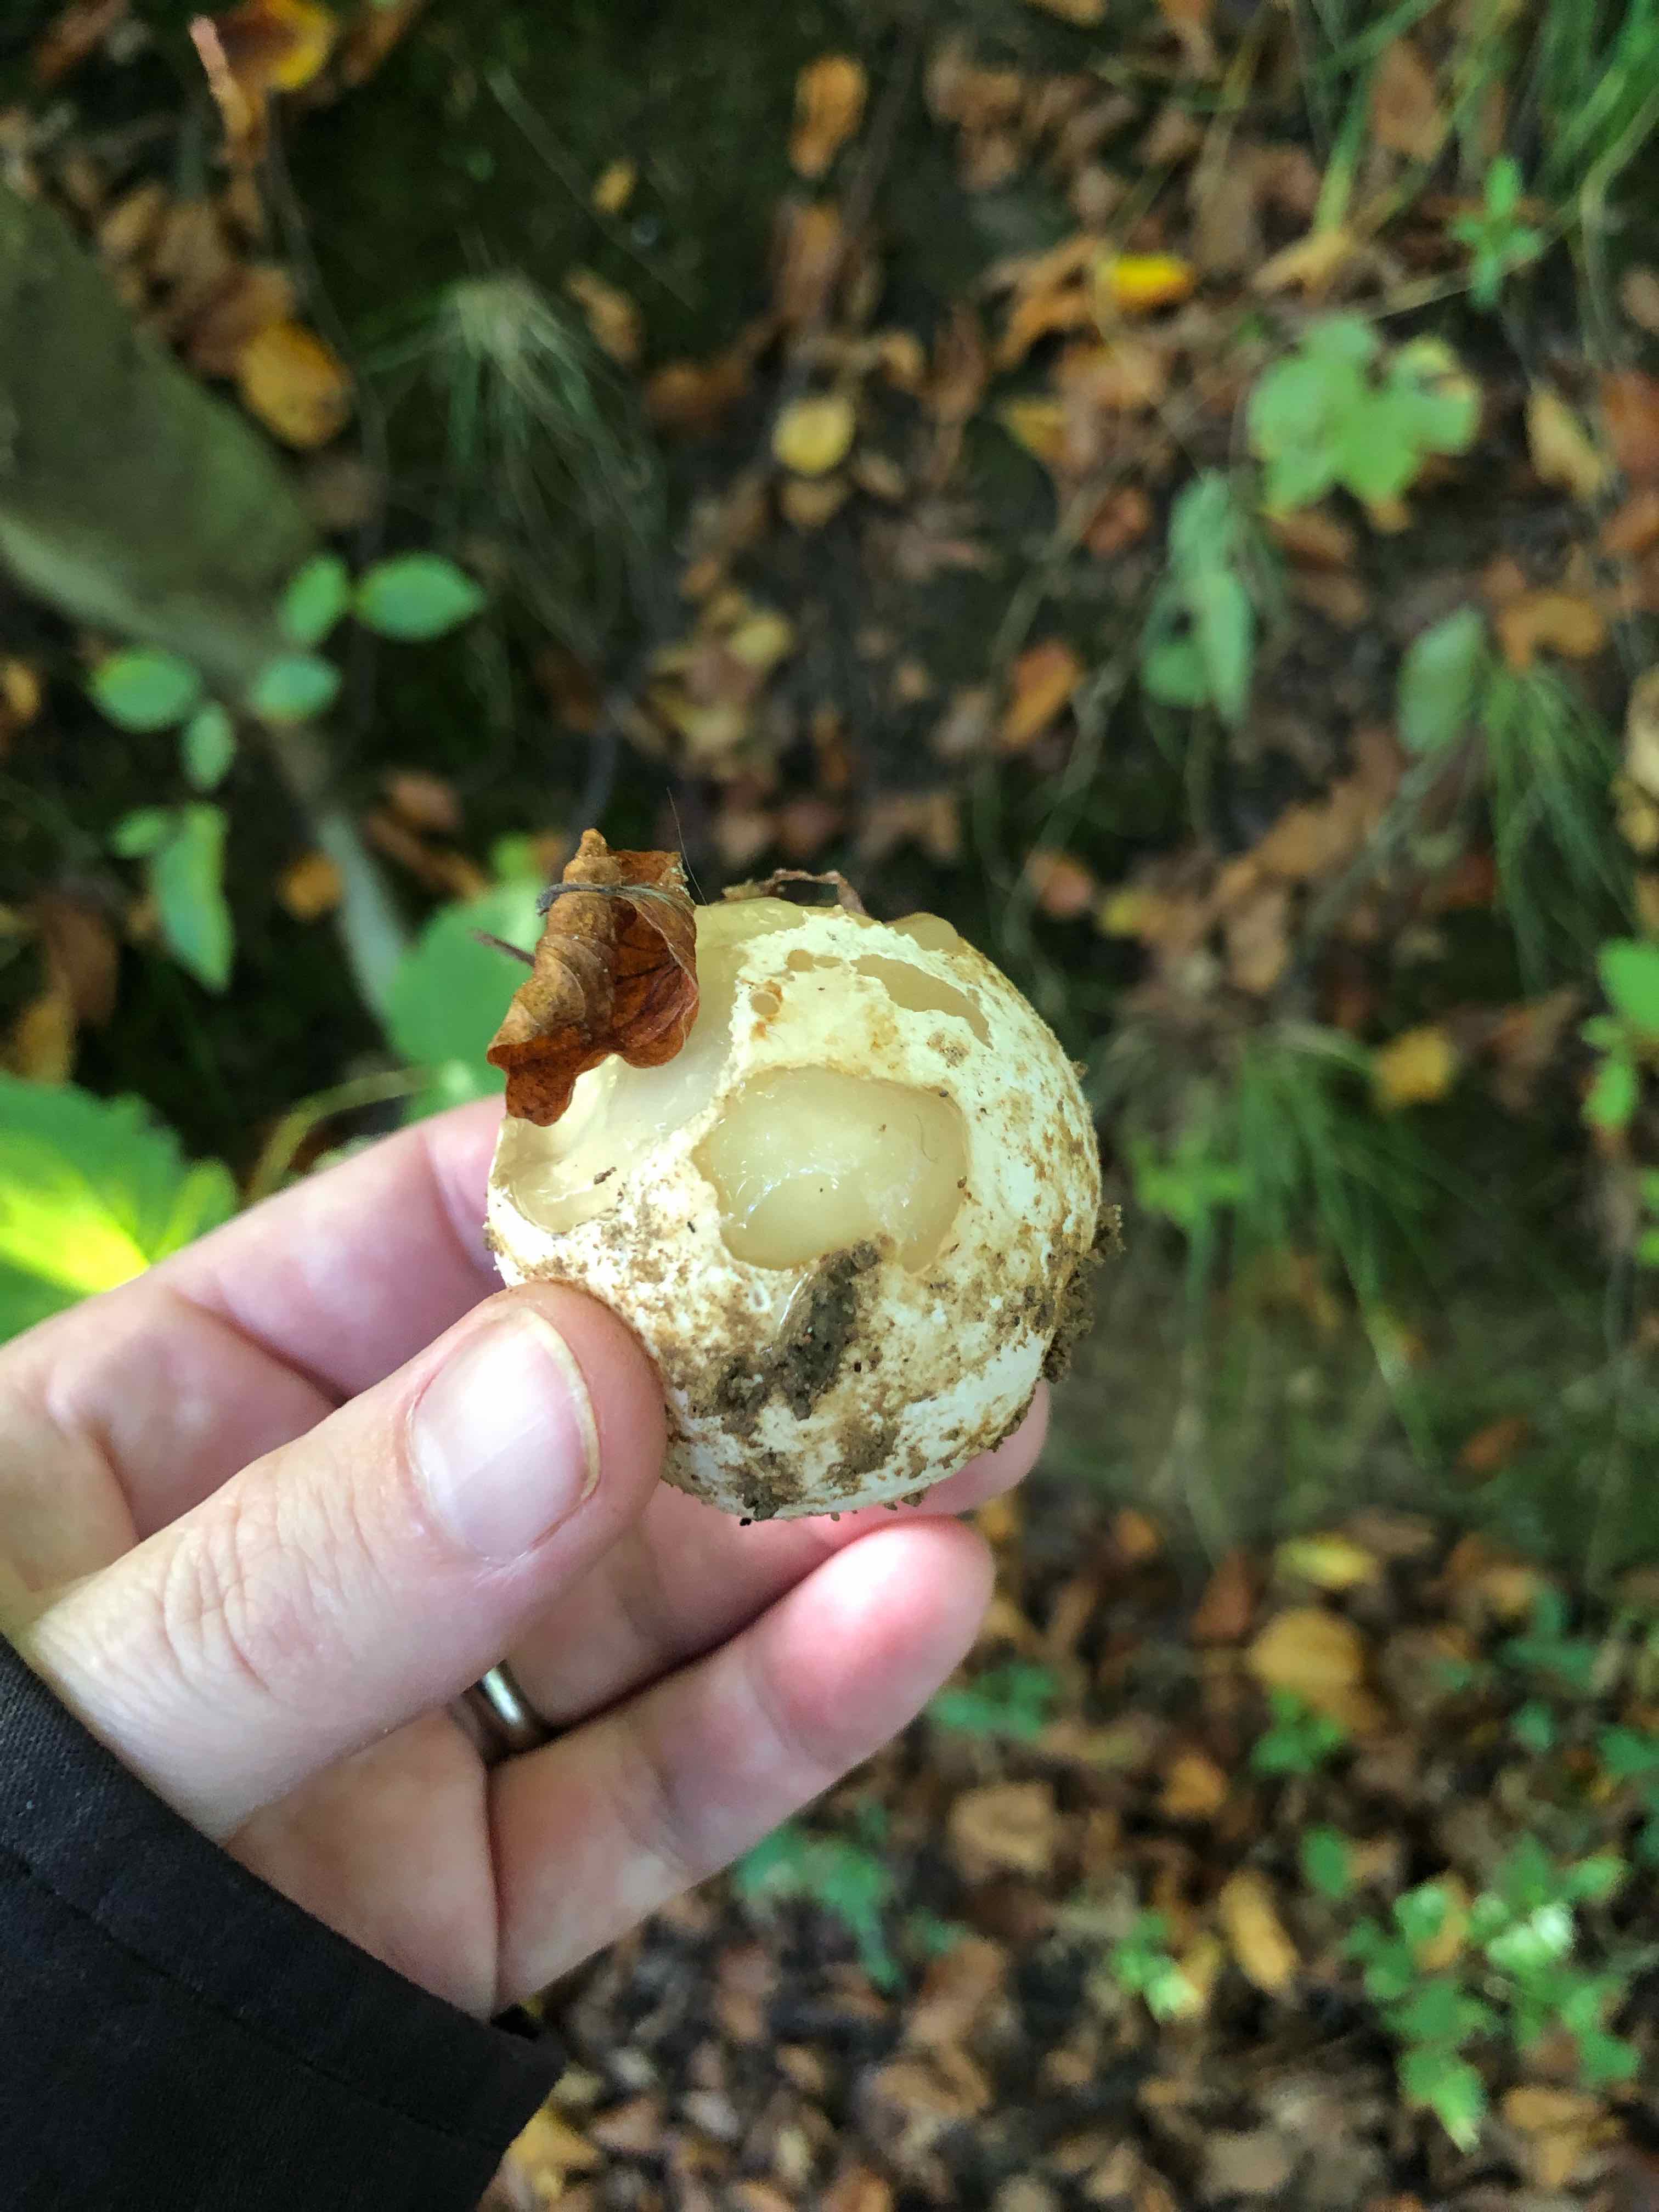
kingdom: Fungi
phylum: Basidiomycota
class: Agaricomycetes
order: Phallales
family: Phallaceae
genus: Phallus
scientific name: Phallus impudicus
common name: almindelig stinksvamp
